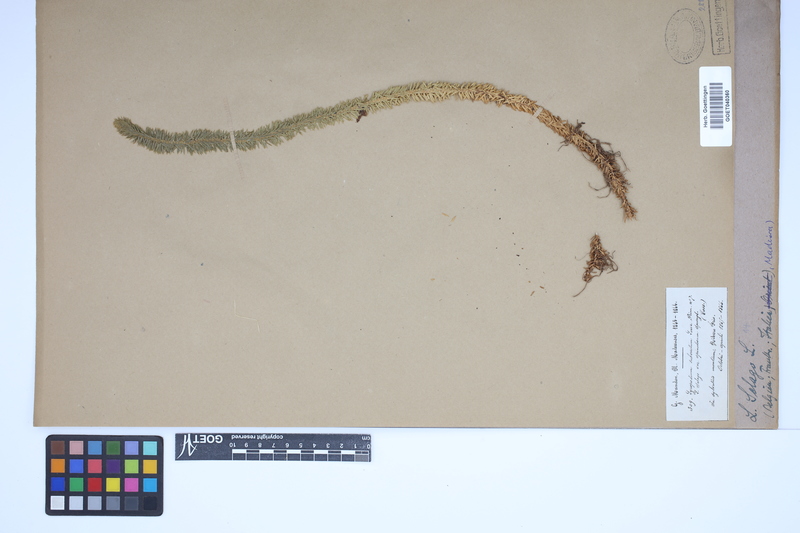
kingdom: Plantae
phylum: Tracheophyta
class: Lycopodiopsida
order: Lycopodiales
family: Lycopodiaceae
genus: Huperzia
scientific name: Huperzia selago
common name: Northern firmoss
